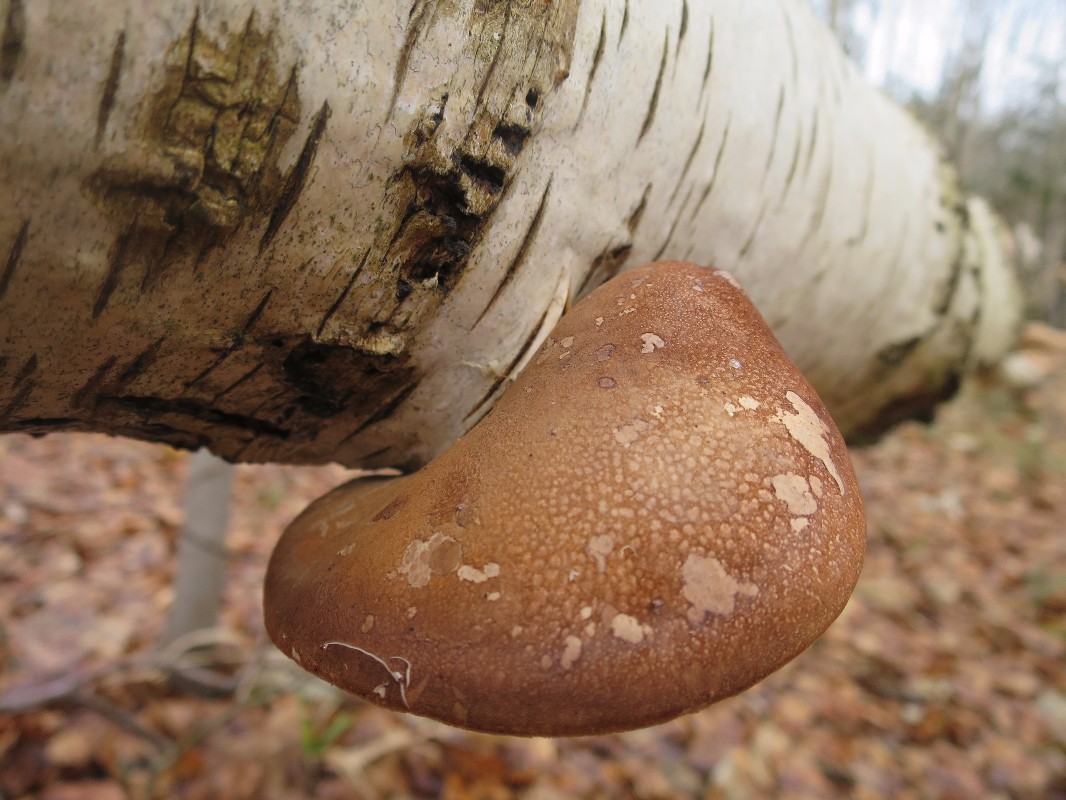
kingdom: Fungi
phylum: Basidiomycota
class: Agaricomycetes
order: Polyporales
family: Fomitopsidaceae
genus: Fomitopsis
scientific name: Fomitopsis betulina
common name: birkeporesvamp
